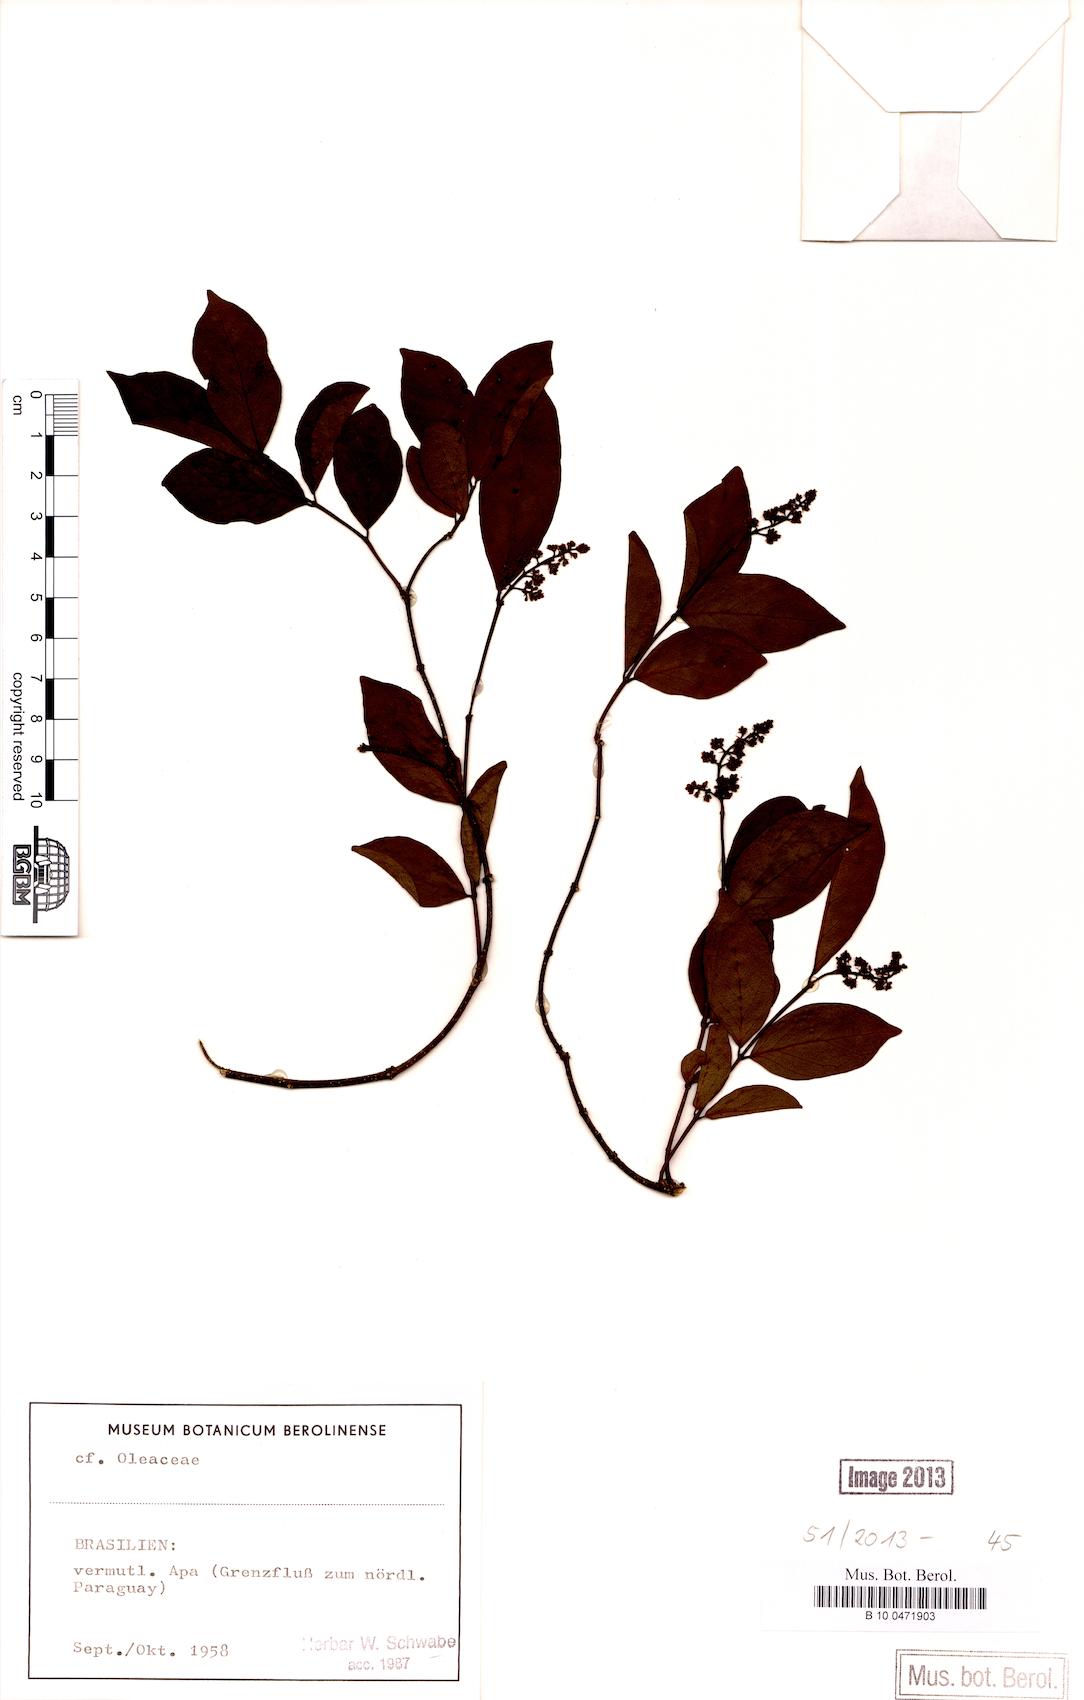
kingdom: Plantae
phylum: Tracheophyta
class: Magnoliopsida
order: Lamiales
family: Oleaceae
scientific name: Oleaceae
